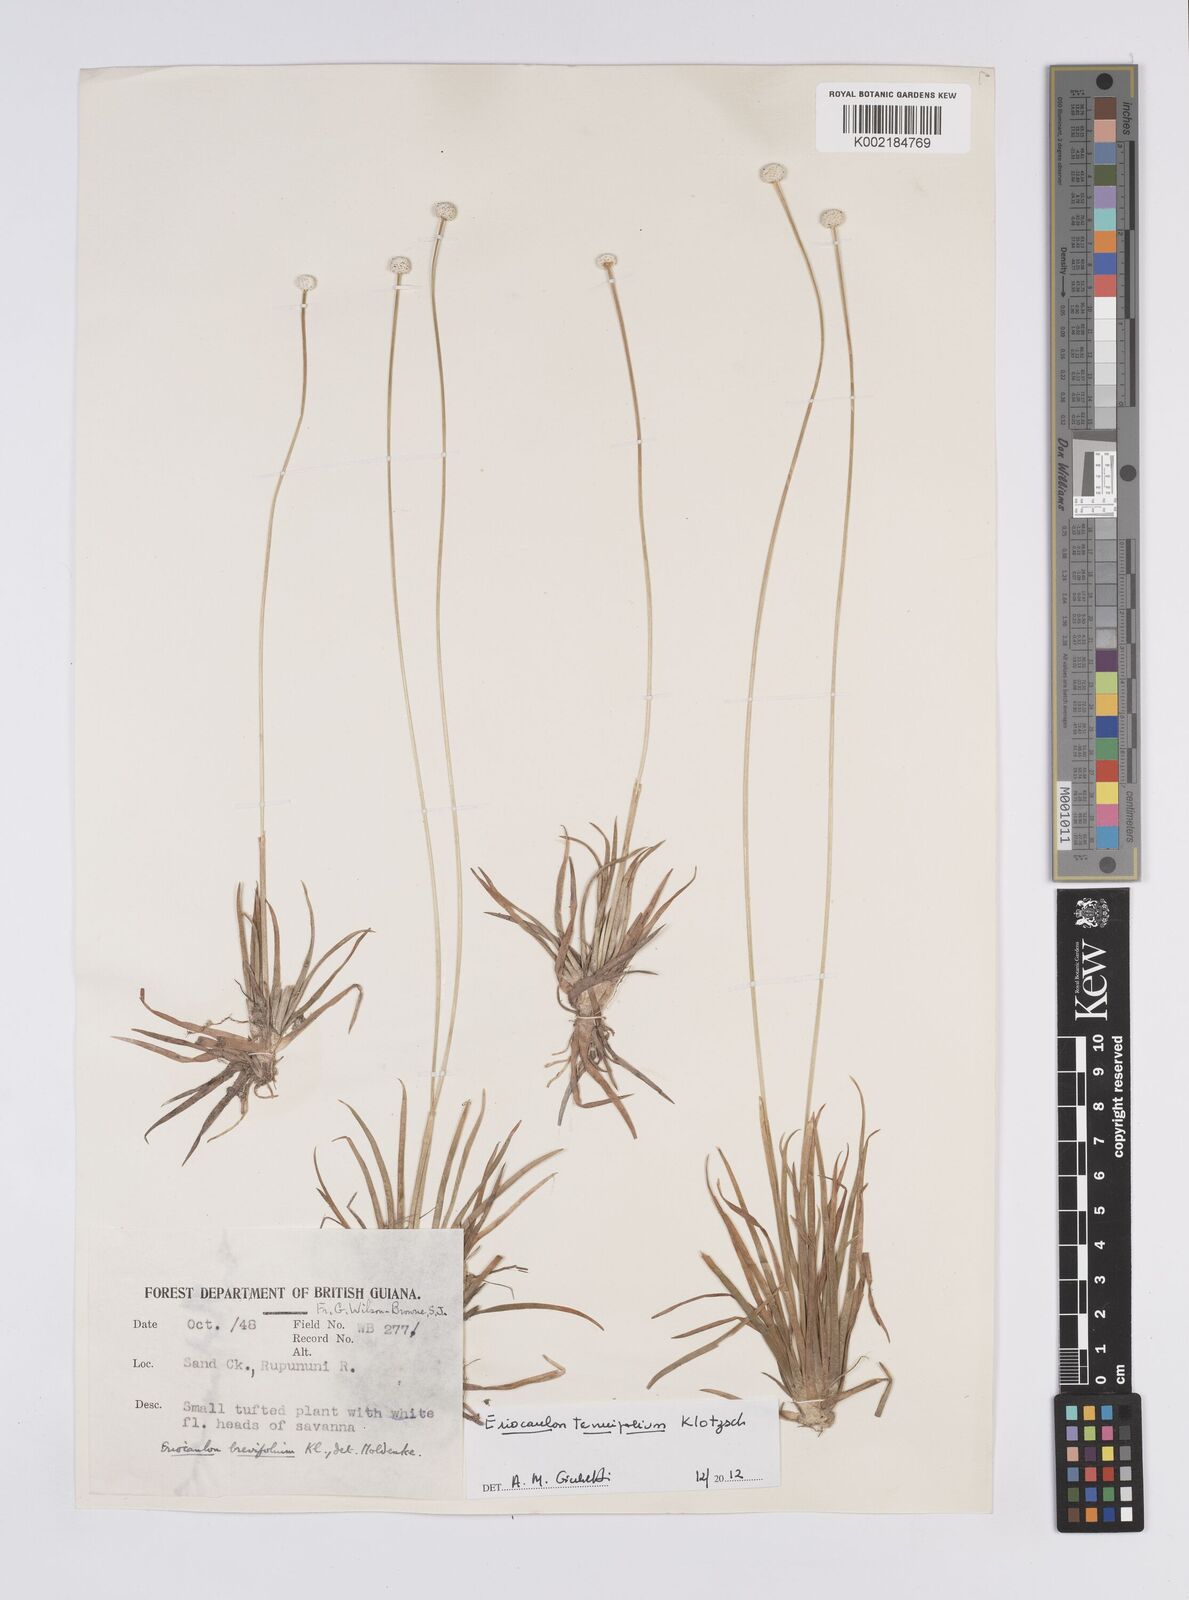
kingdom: Plantae
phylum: Tracheophyta
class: Liliopsida
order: Poales
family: Eriocaulaceae
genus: Eriocaulon
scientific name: Eriocaulon tenuifolium
